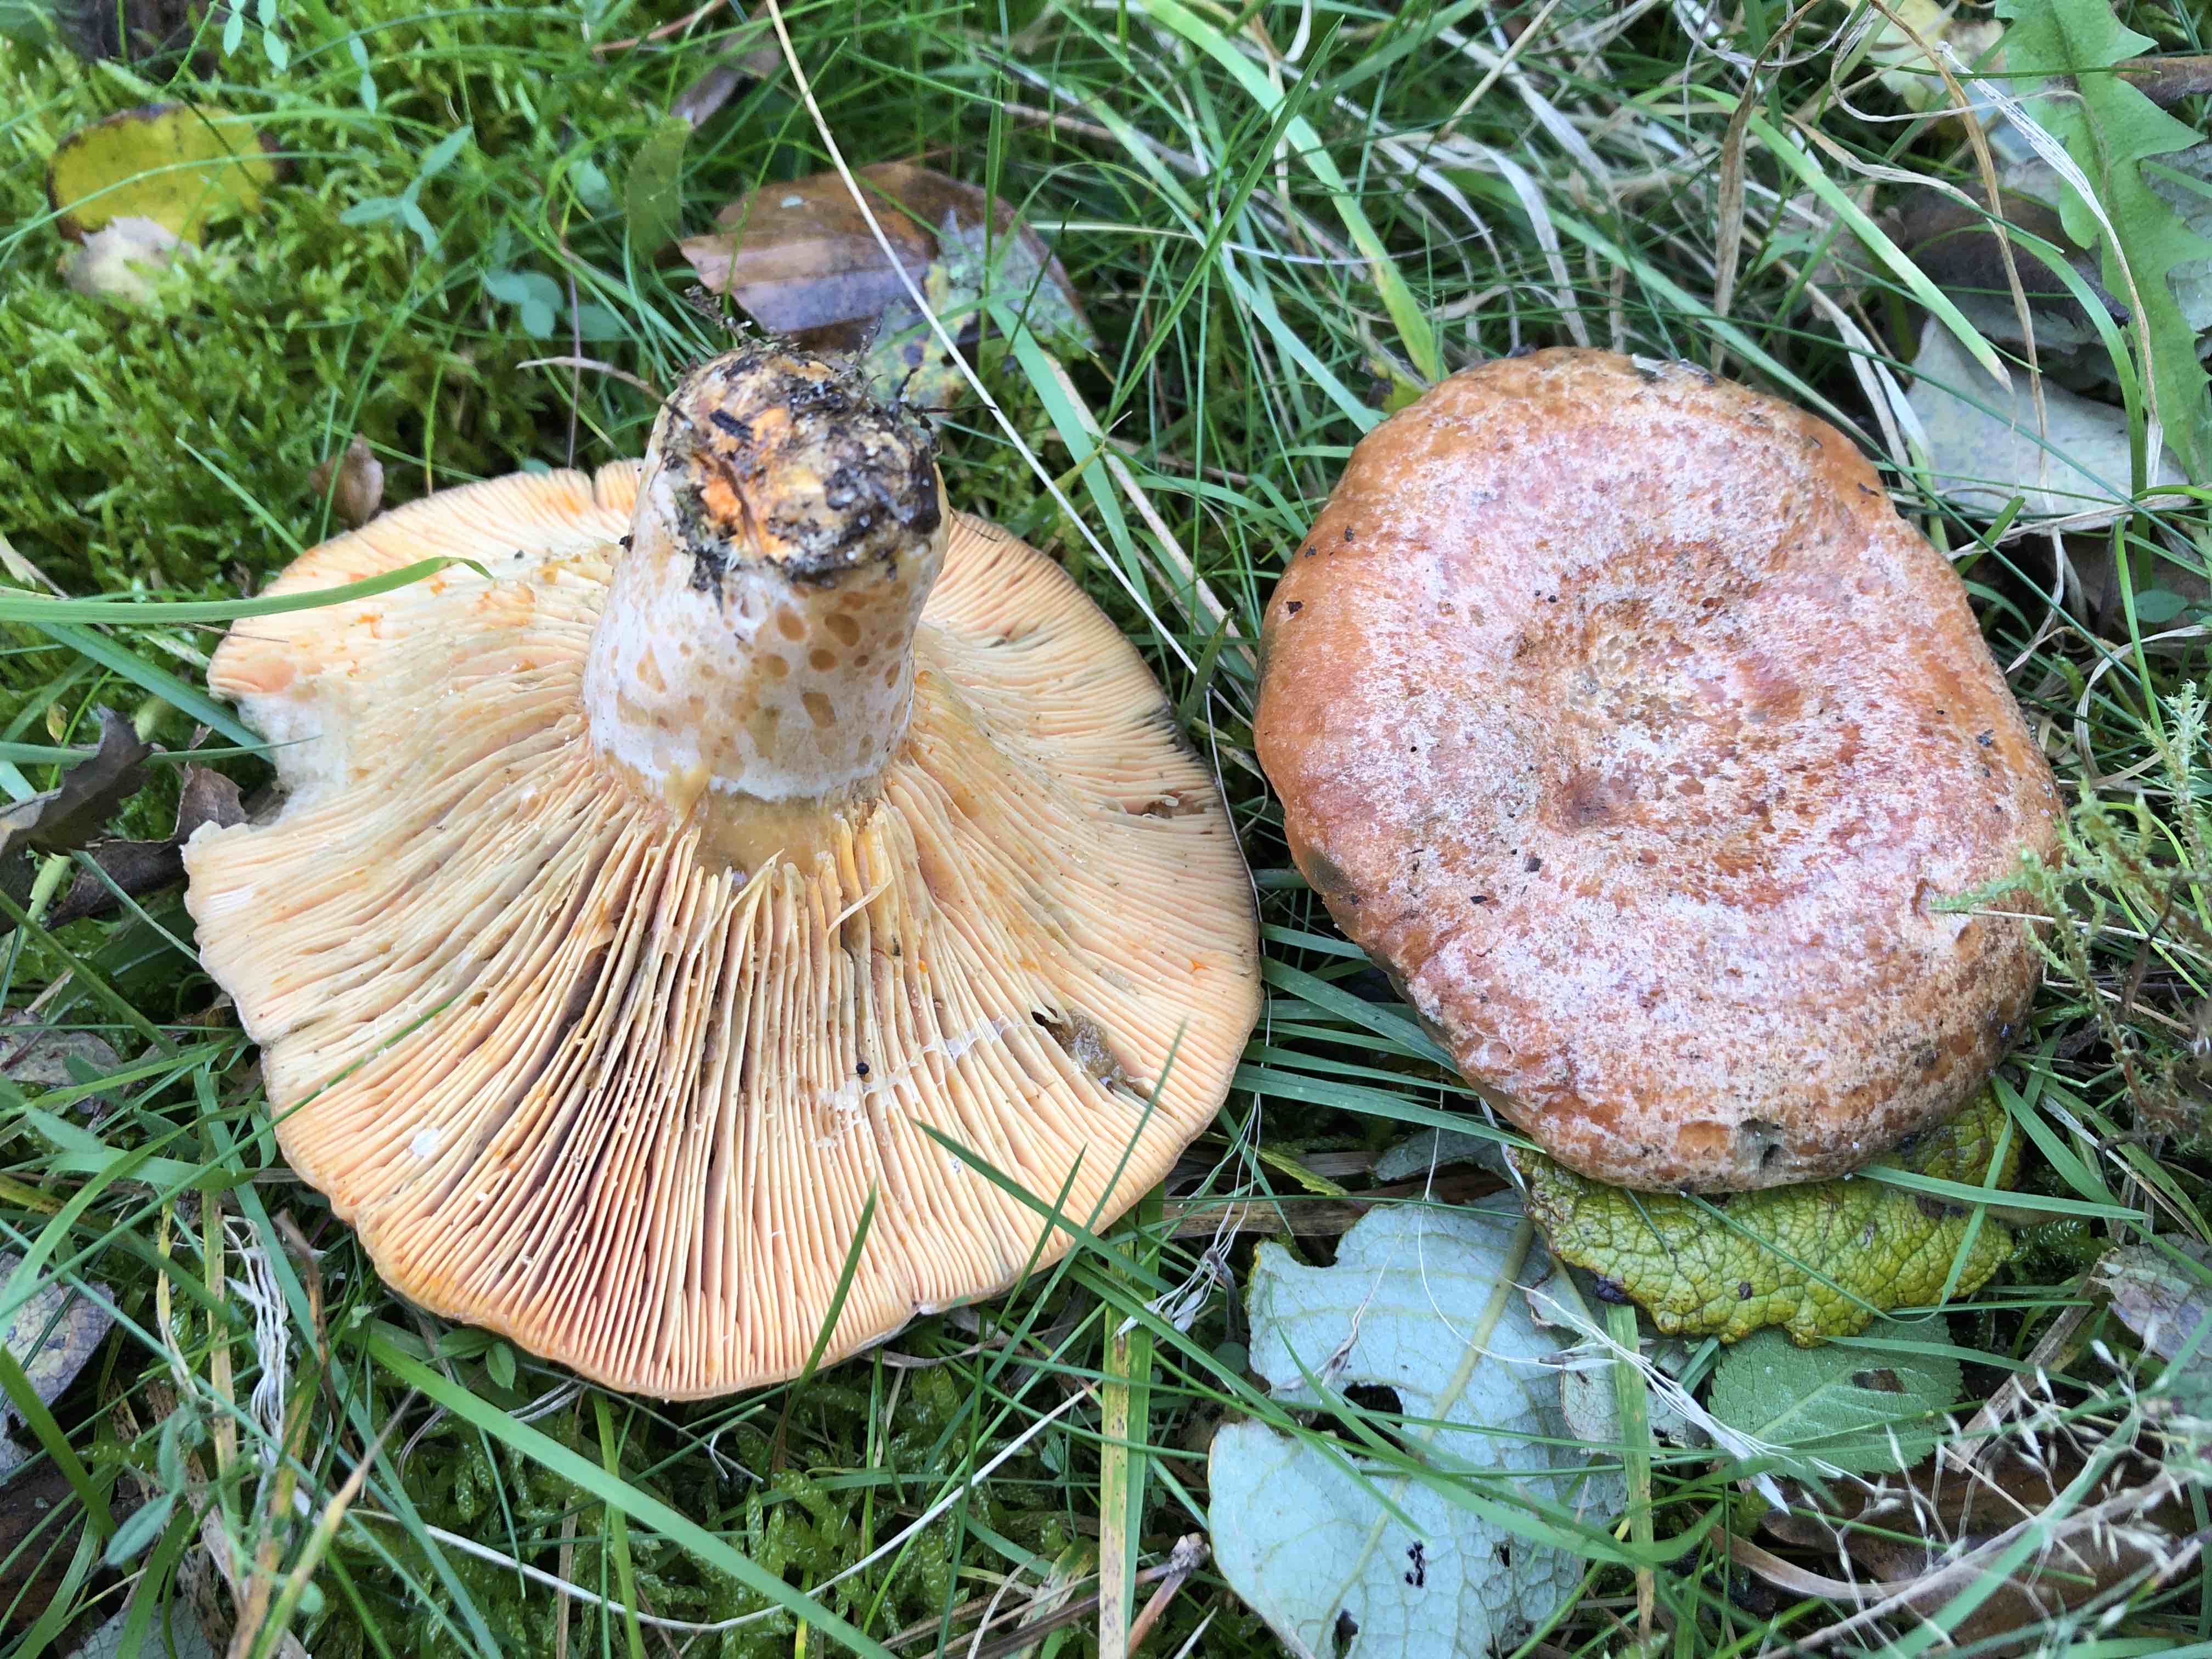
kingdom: Fungi
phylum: Basidiomycota
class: Agaricomycetes
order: Russulales
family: Russulaceae
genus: Lactarius
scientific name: Lactarius deliciosus
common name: velsmagende mælkehat
